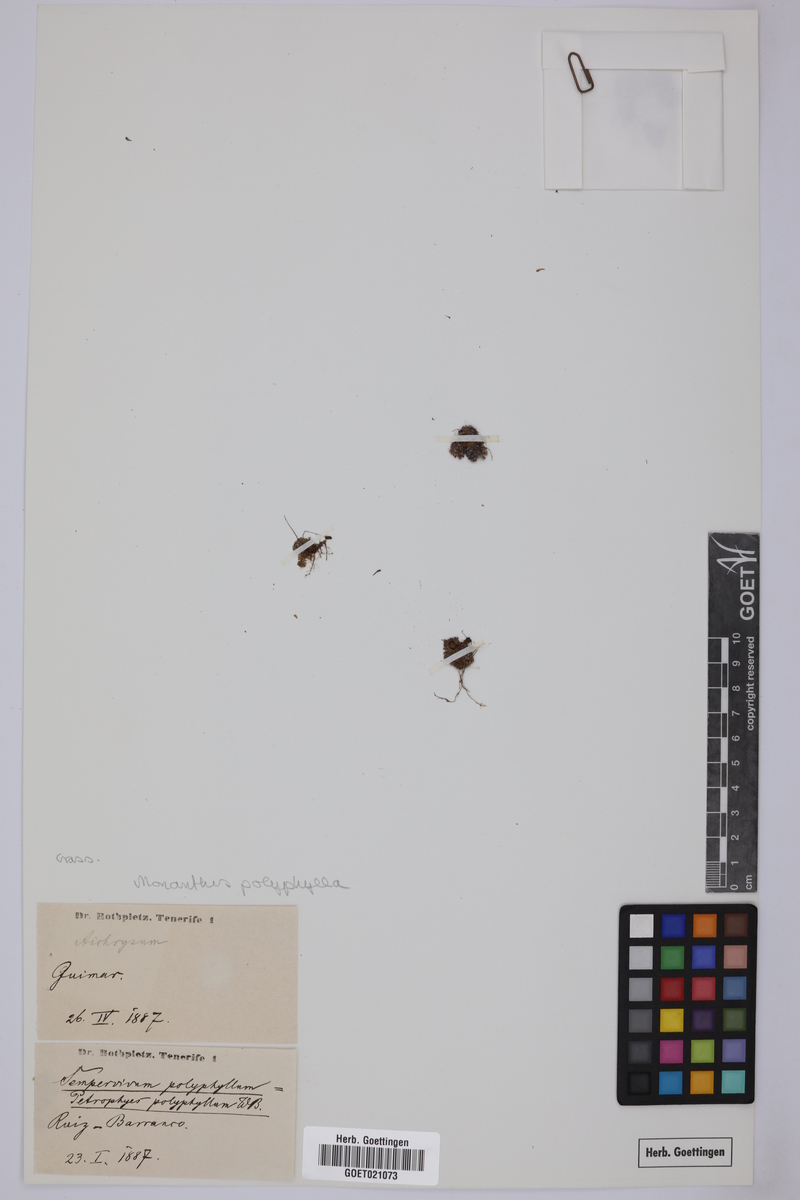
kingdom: Plantae
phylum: Tracheophyta
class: Magnoliopsida
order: Saxifragales
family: Crassulaceae
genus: Monanthes
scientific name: Monanthes polyphylla
